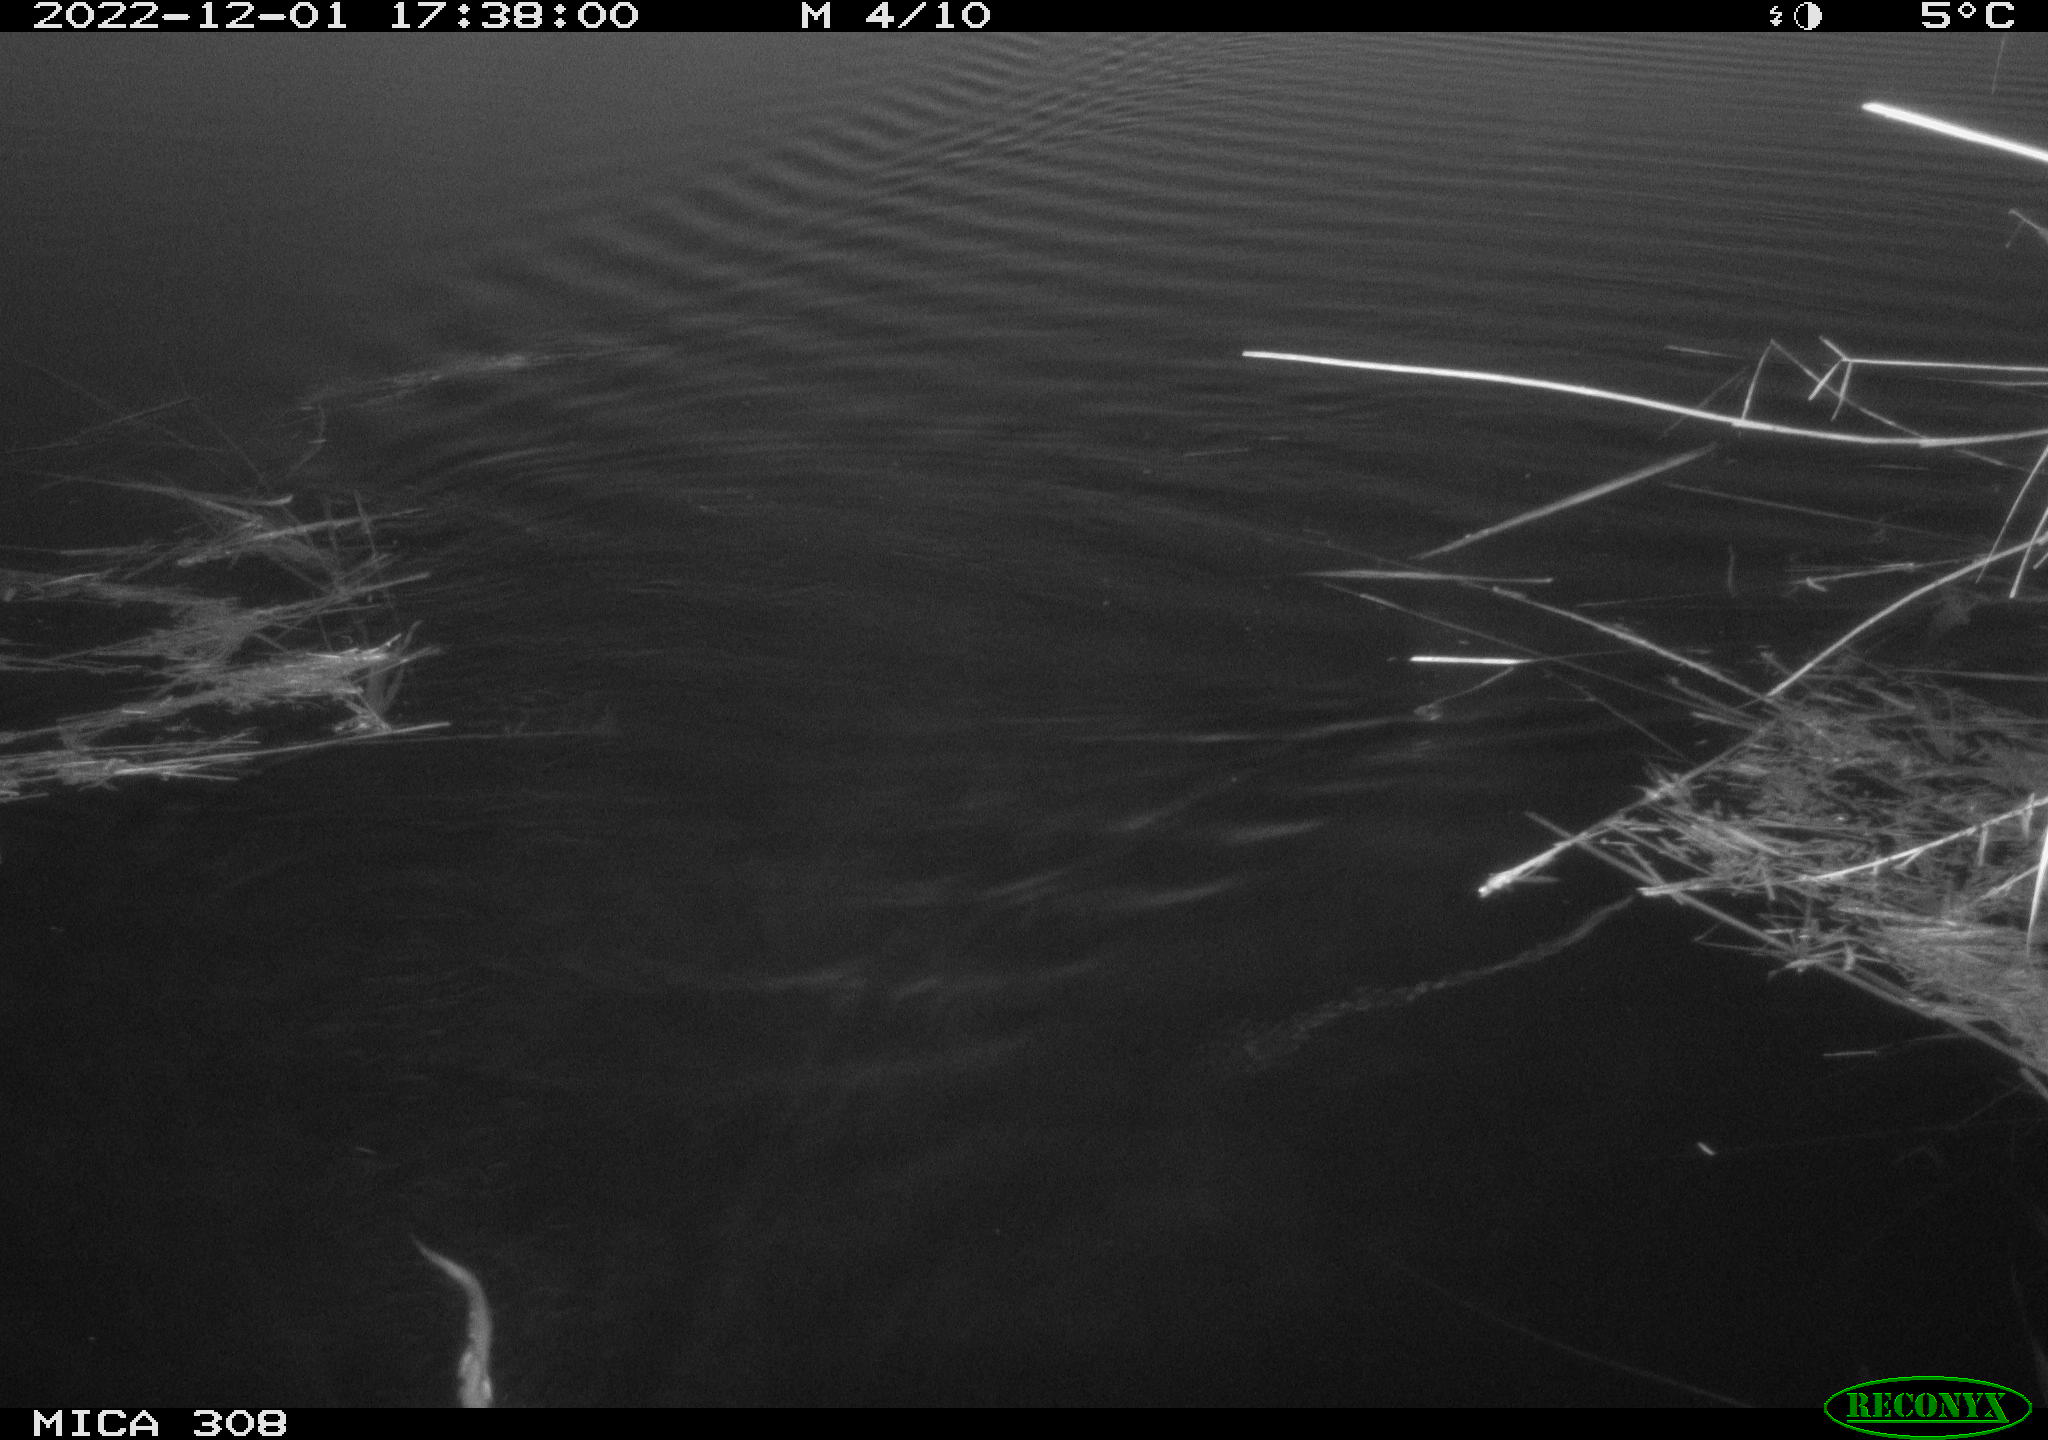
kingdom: Animalia
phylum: Chordata
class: Mammalia
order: Rodentia
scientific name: Rodentia
